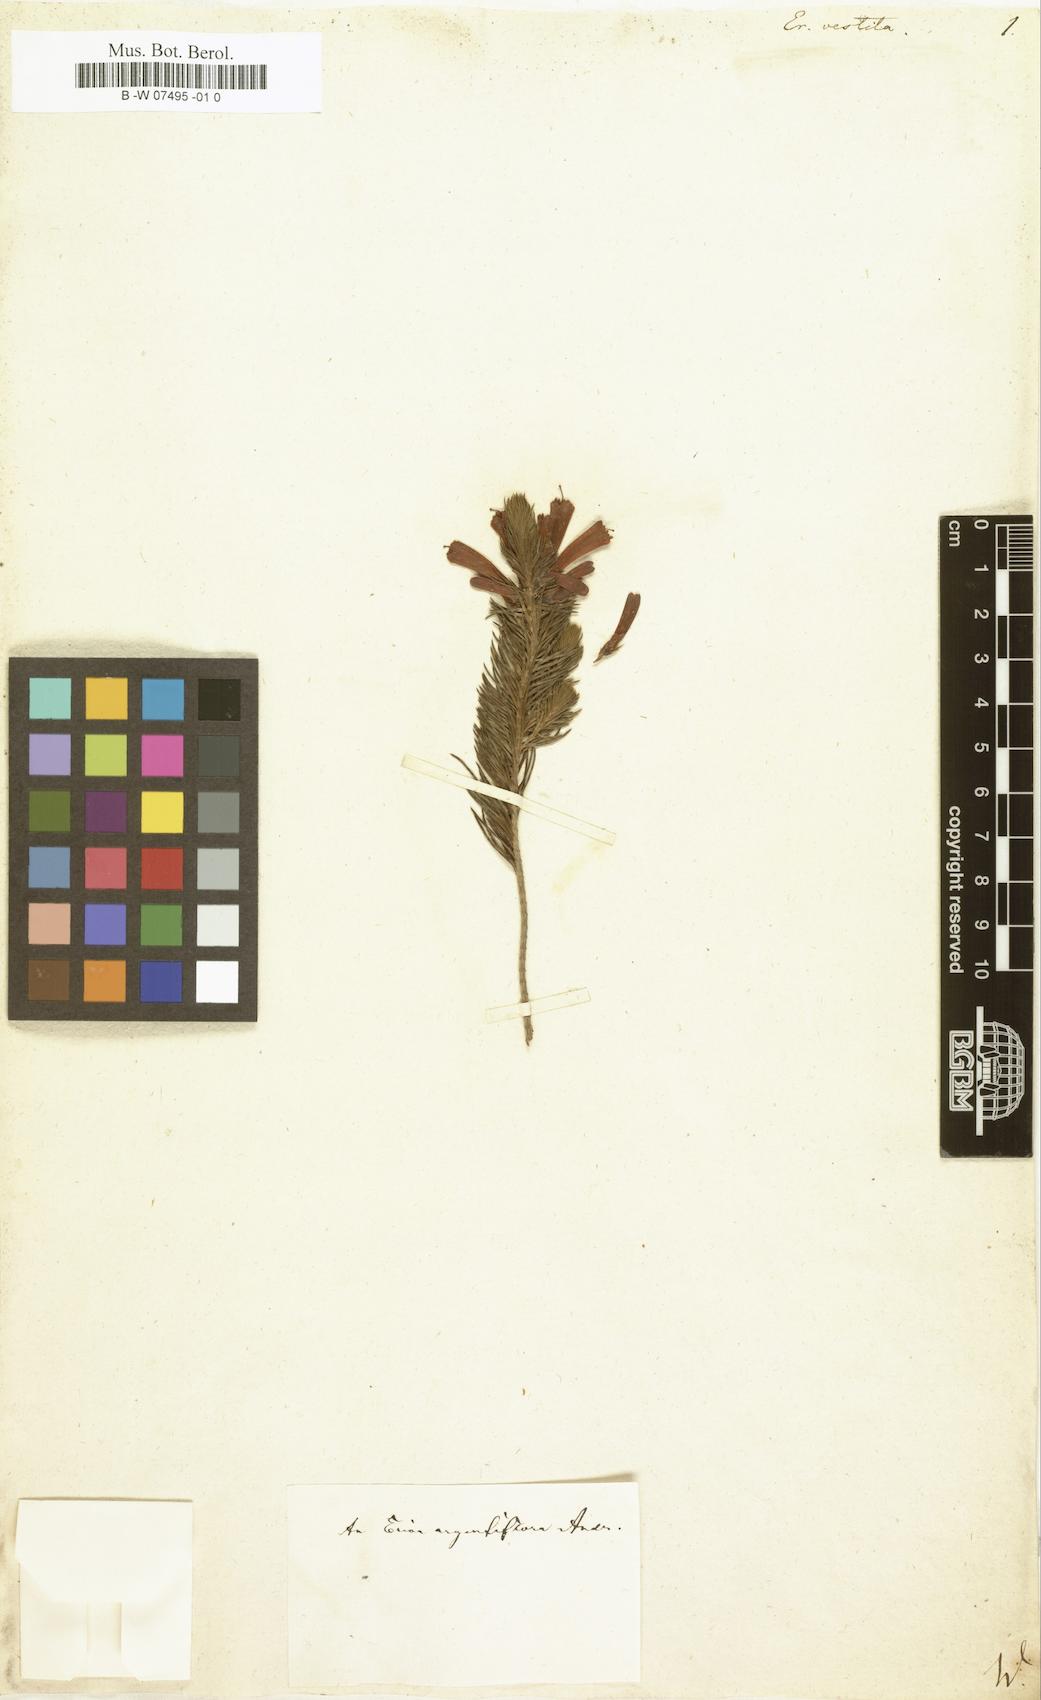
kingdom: Plantae
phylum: Tracheophyta
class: Magnoliopsida
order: Ericales
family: Ericaceae
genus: Erica
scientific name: Erica vestita
